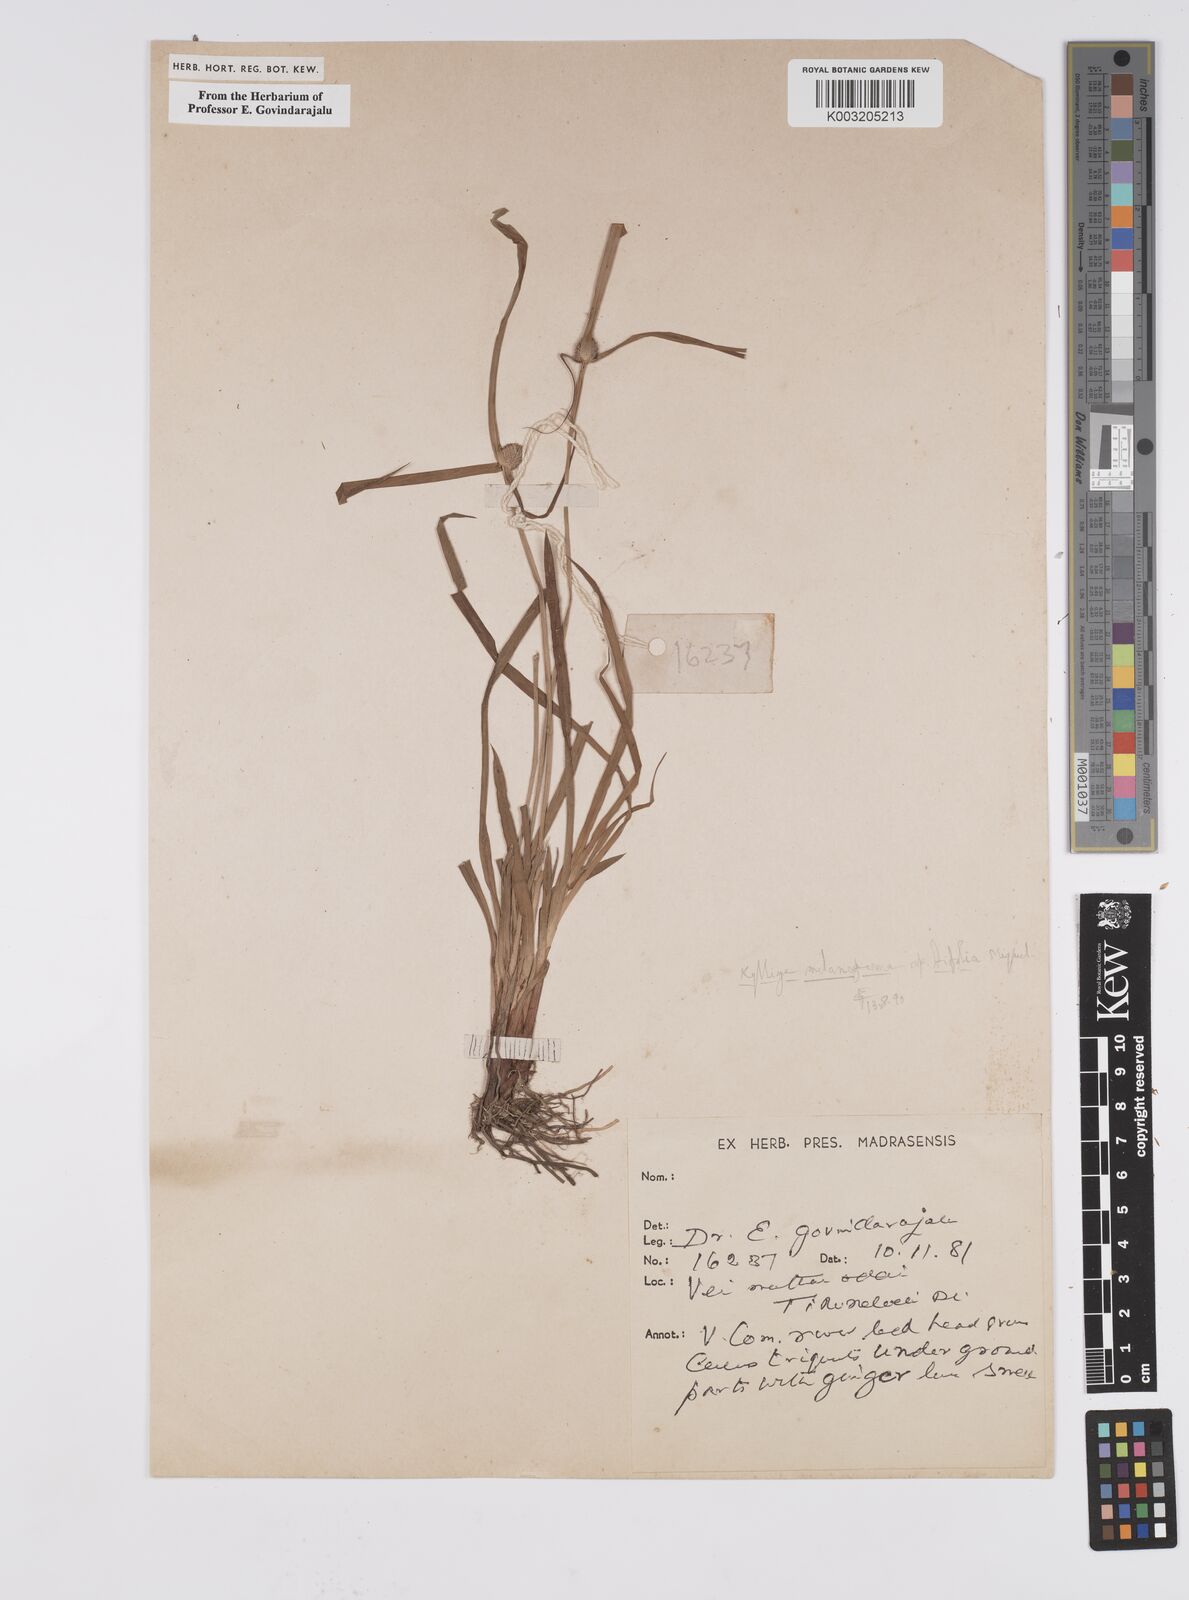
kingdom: Plantae
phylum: Tracheophyta
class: Liliopsida
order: Poales
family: Cyperaceae
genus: Cyperus
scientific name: Cyperus melanospermus
